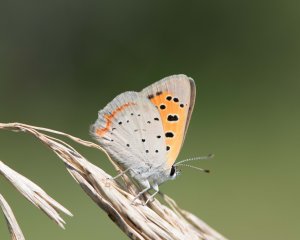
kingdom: Animalia
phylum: Arthropoda
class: Insecta
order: Lepidoptera
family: Lycaenidae
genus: Lycaena
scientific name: Lycaena phlaeas
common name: American Copper
